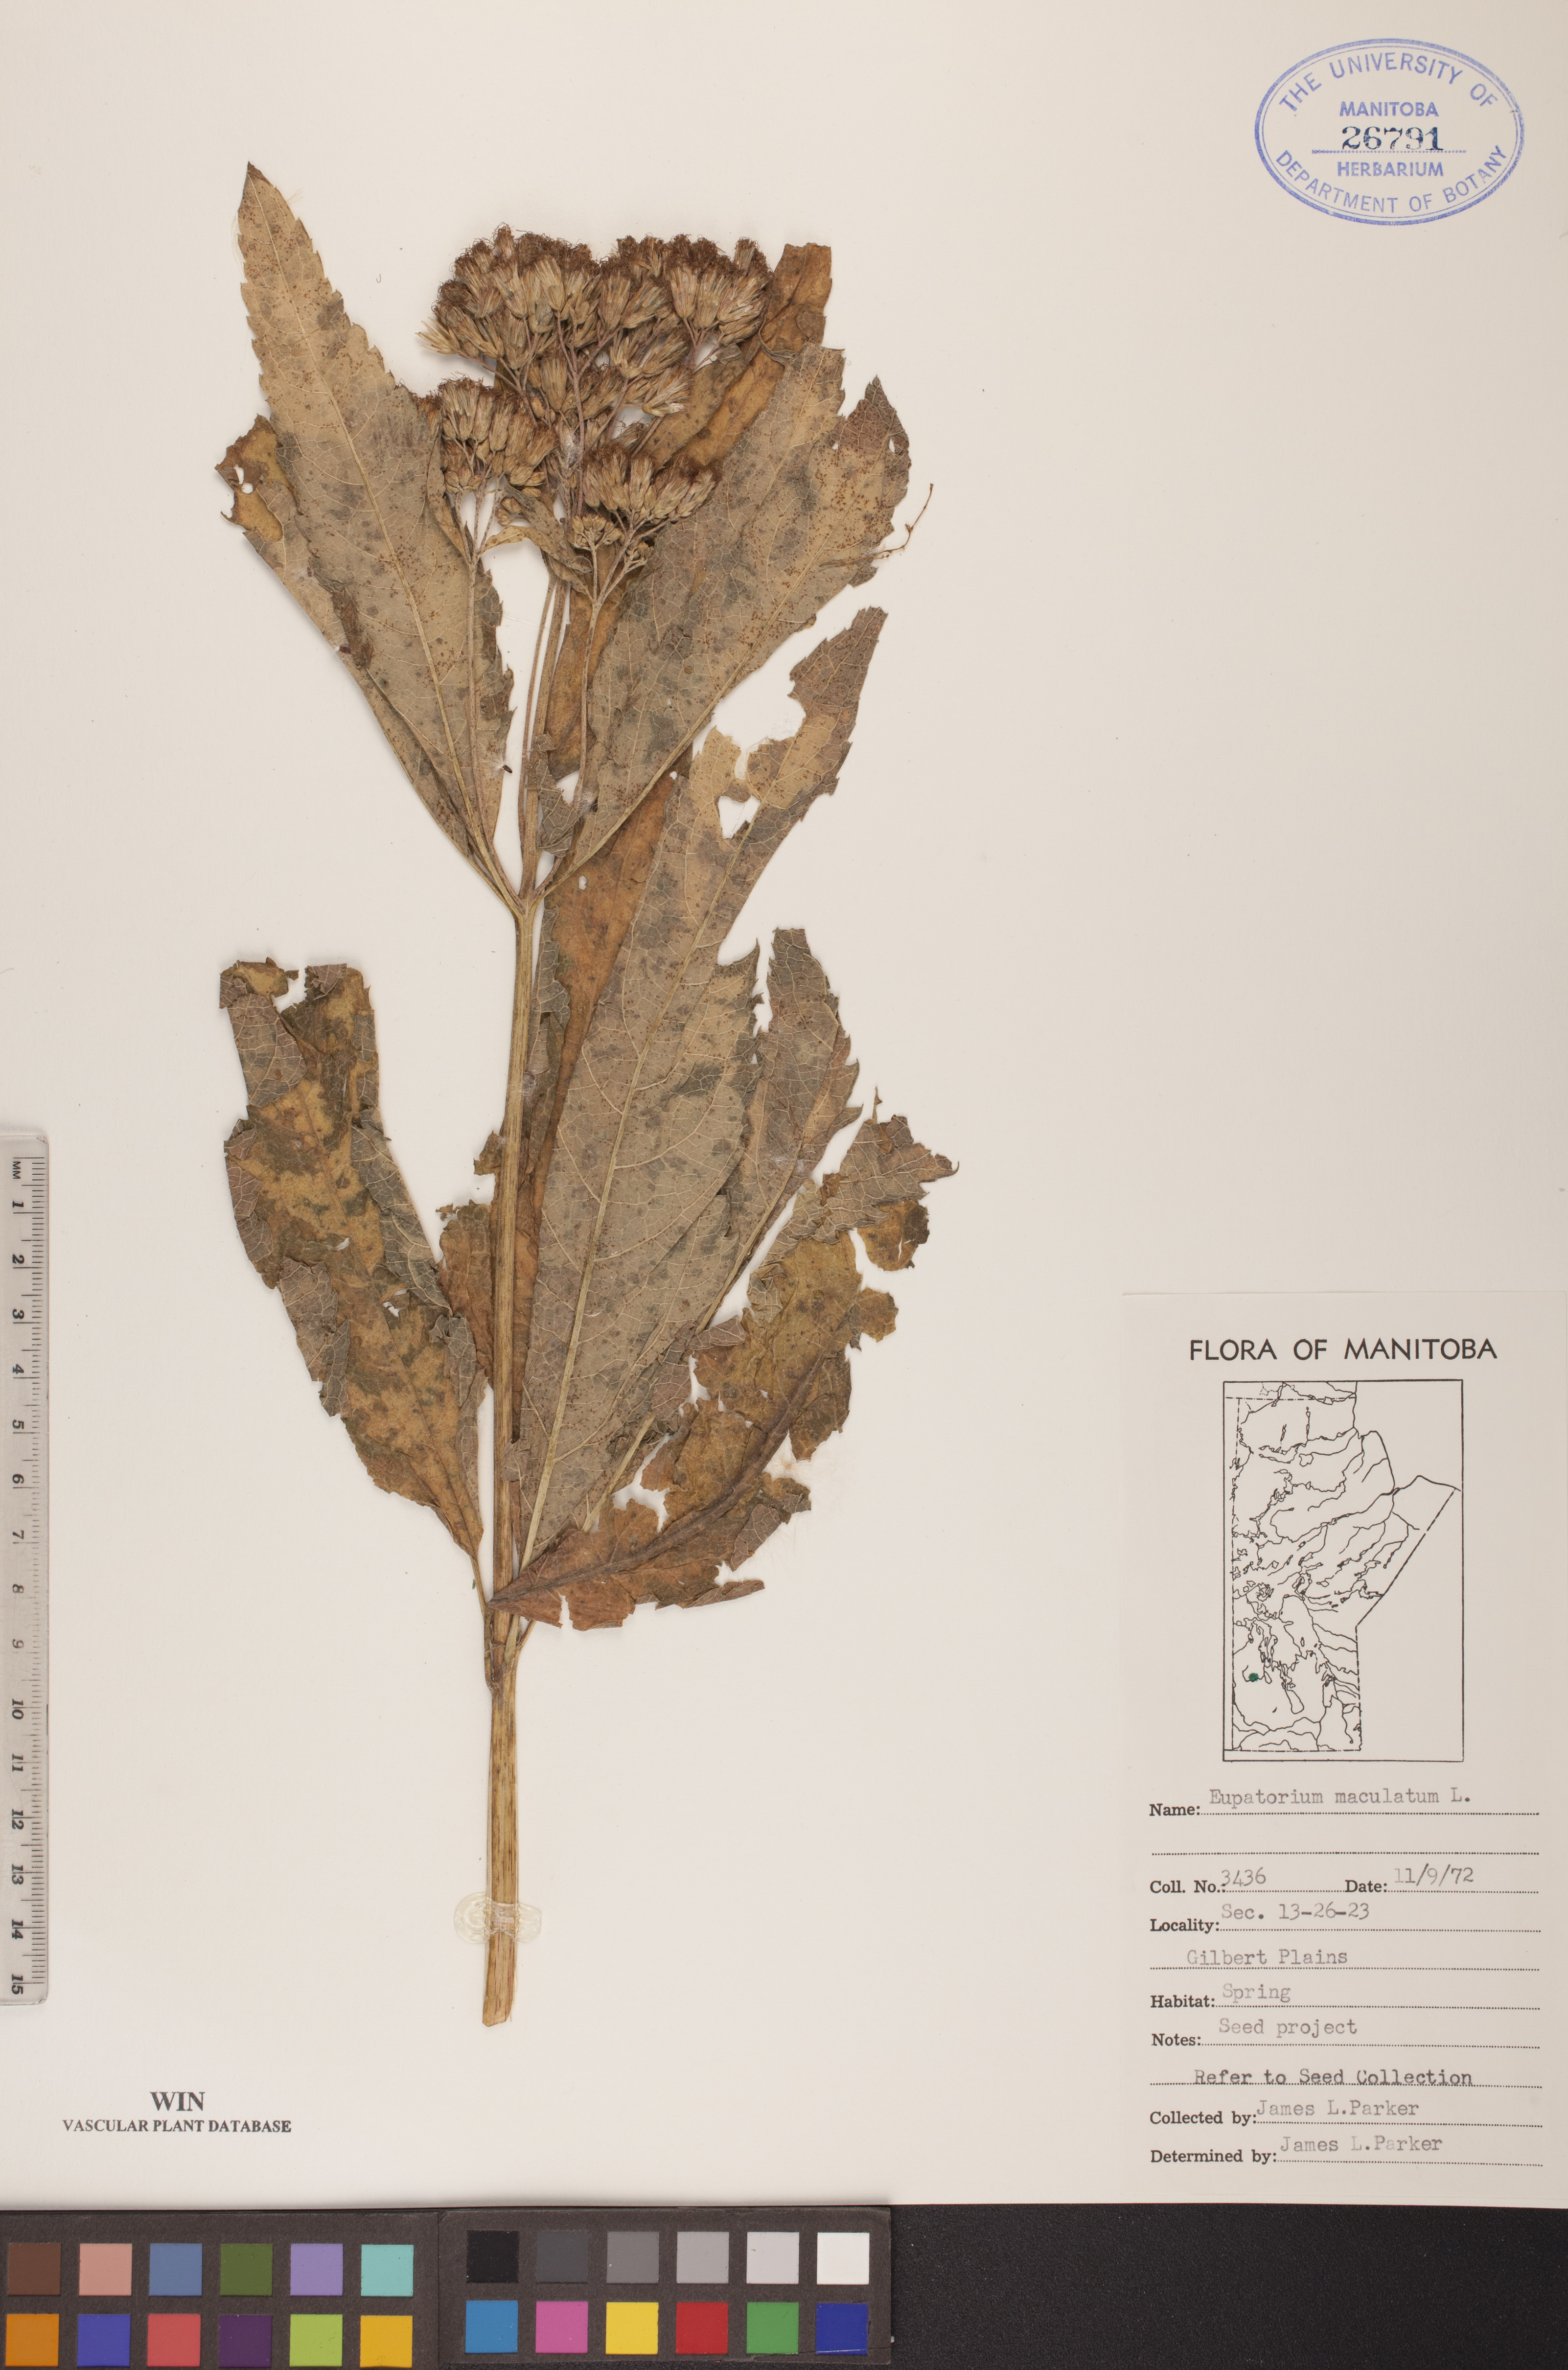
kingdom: Plantae
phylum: Tracheophyta
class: Magnoliopsida
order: Asterales
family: Asteraceae
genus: Eutrochium
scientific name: Eutrochium maculatum
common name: Spotted joe pye weed
